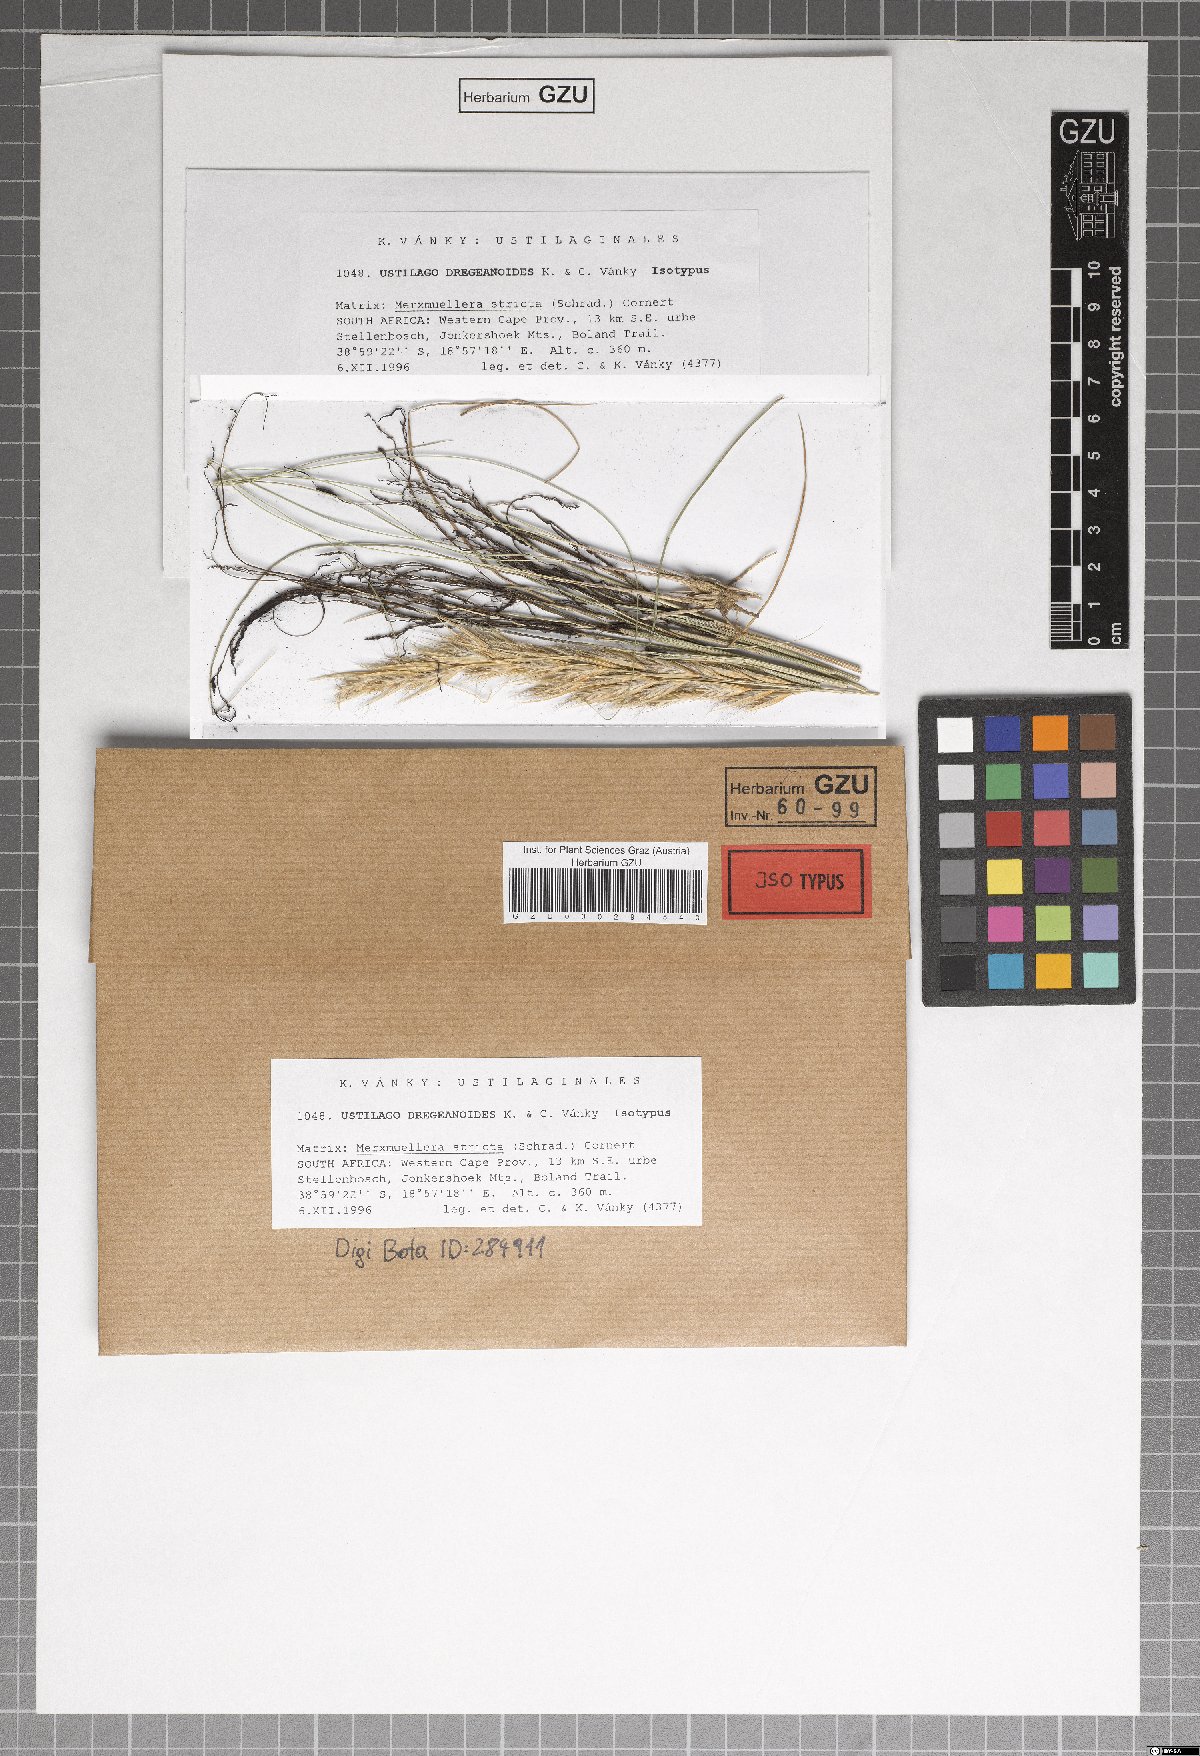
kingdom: Fungi
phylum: Basidiomycota
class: Ustilaginomycetes
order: Ustilaginales
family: Ustilaginaceae
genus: Ustilago
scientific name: Ustilago dregeanoides
